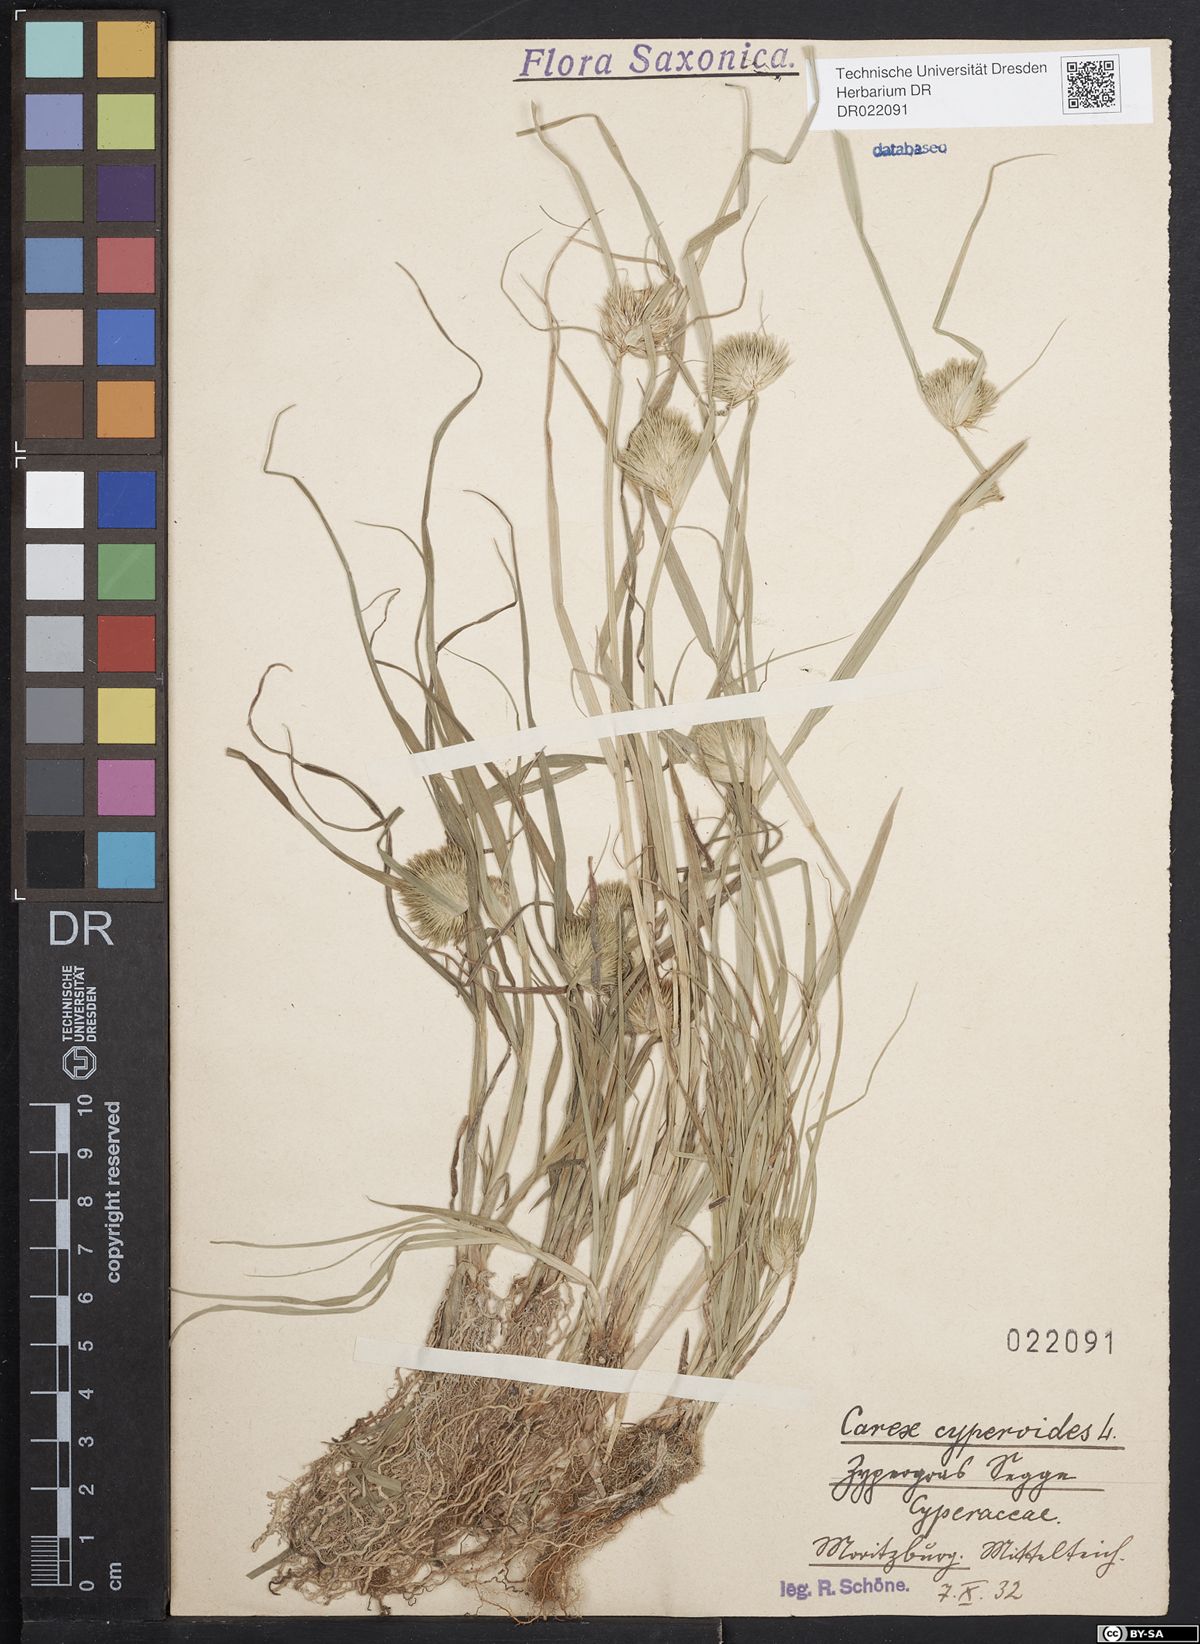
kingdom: Plantae
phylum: Tracheophyta
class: Liliopsida
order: Poales
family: Cyperaceae
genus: Carex
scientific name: Carex bohemica
